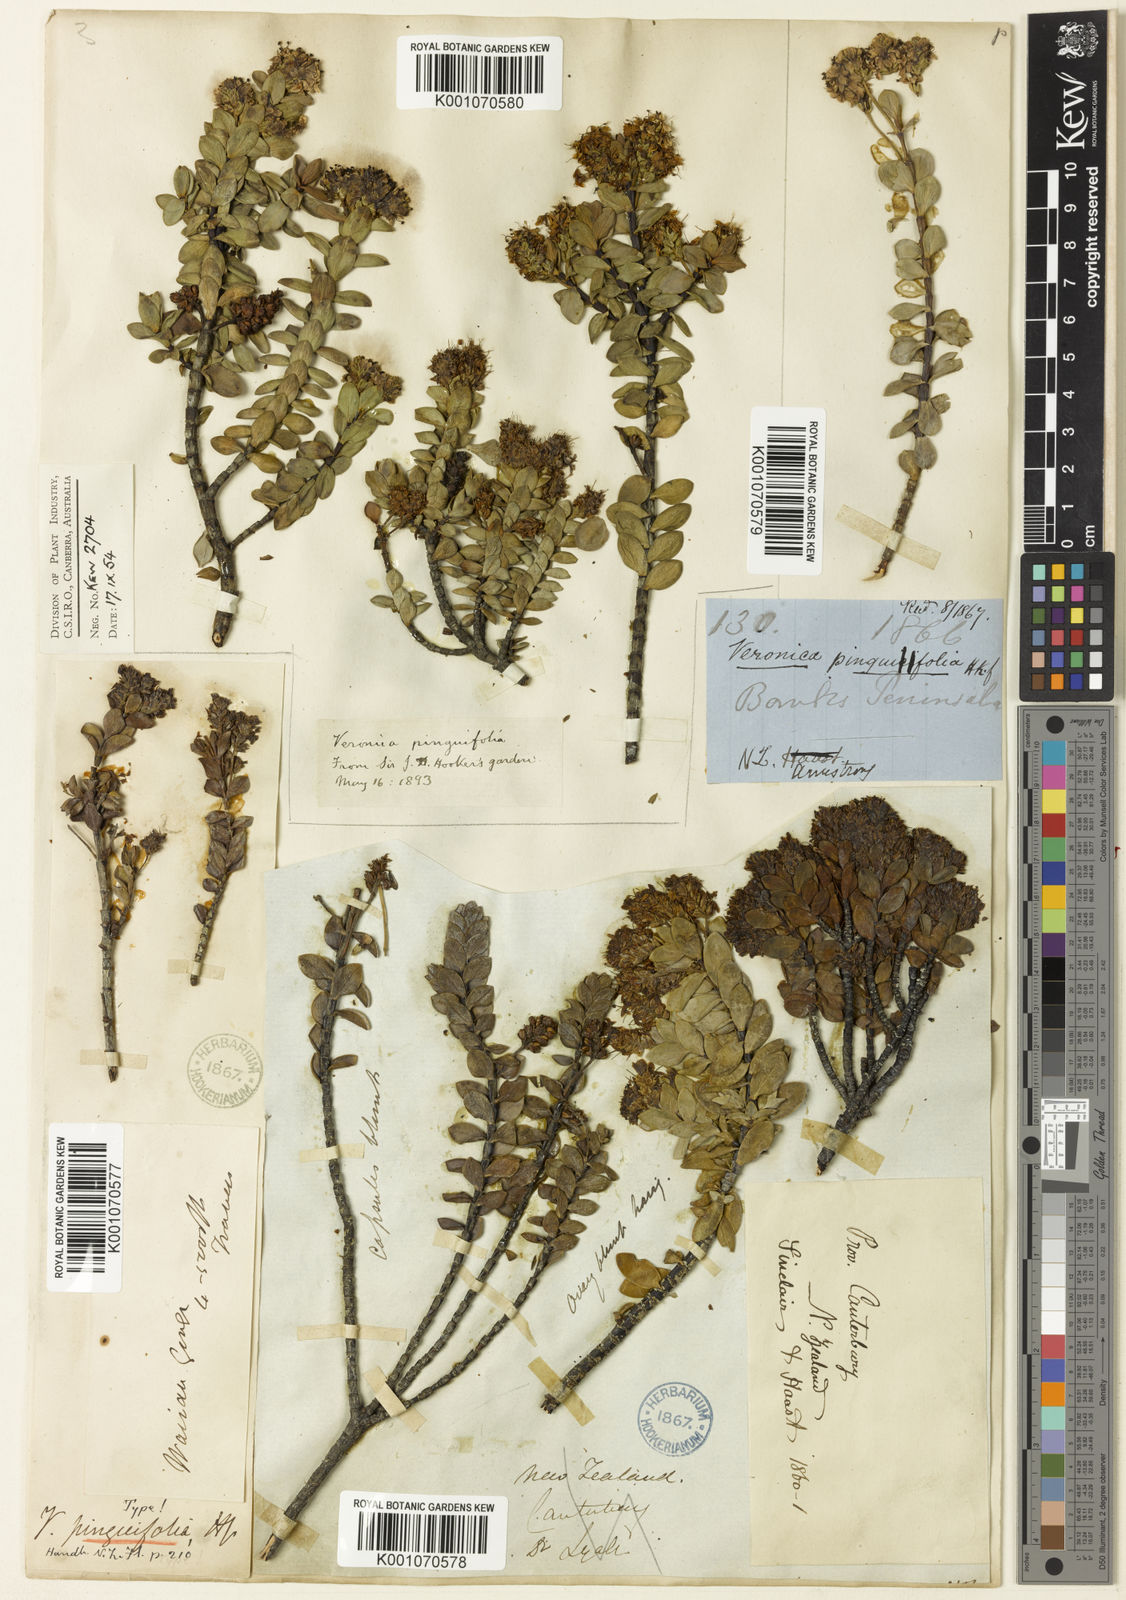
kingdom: Plantae
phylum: Tracheophyta
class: Magnoliopsida
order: Lamiales
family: Plantaginaceae
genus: Veronica
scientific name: Veronica pinguifolia
